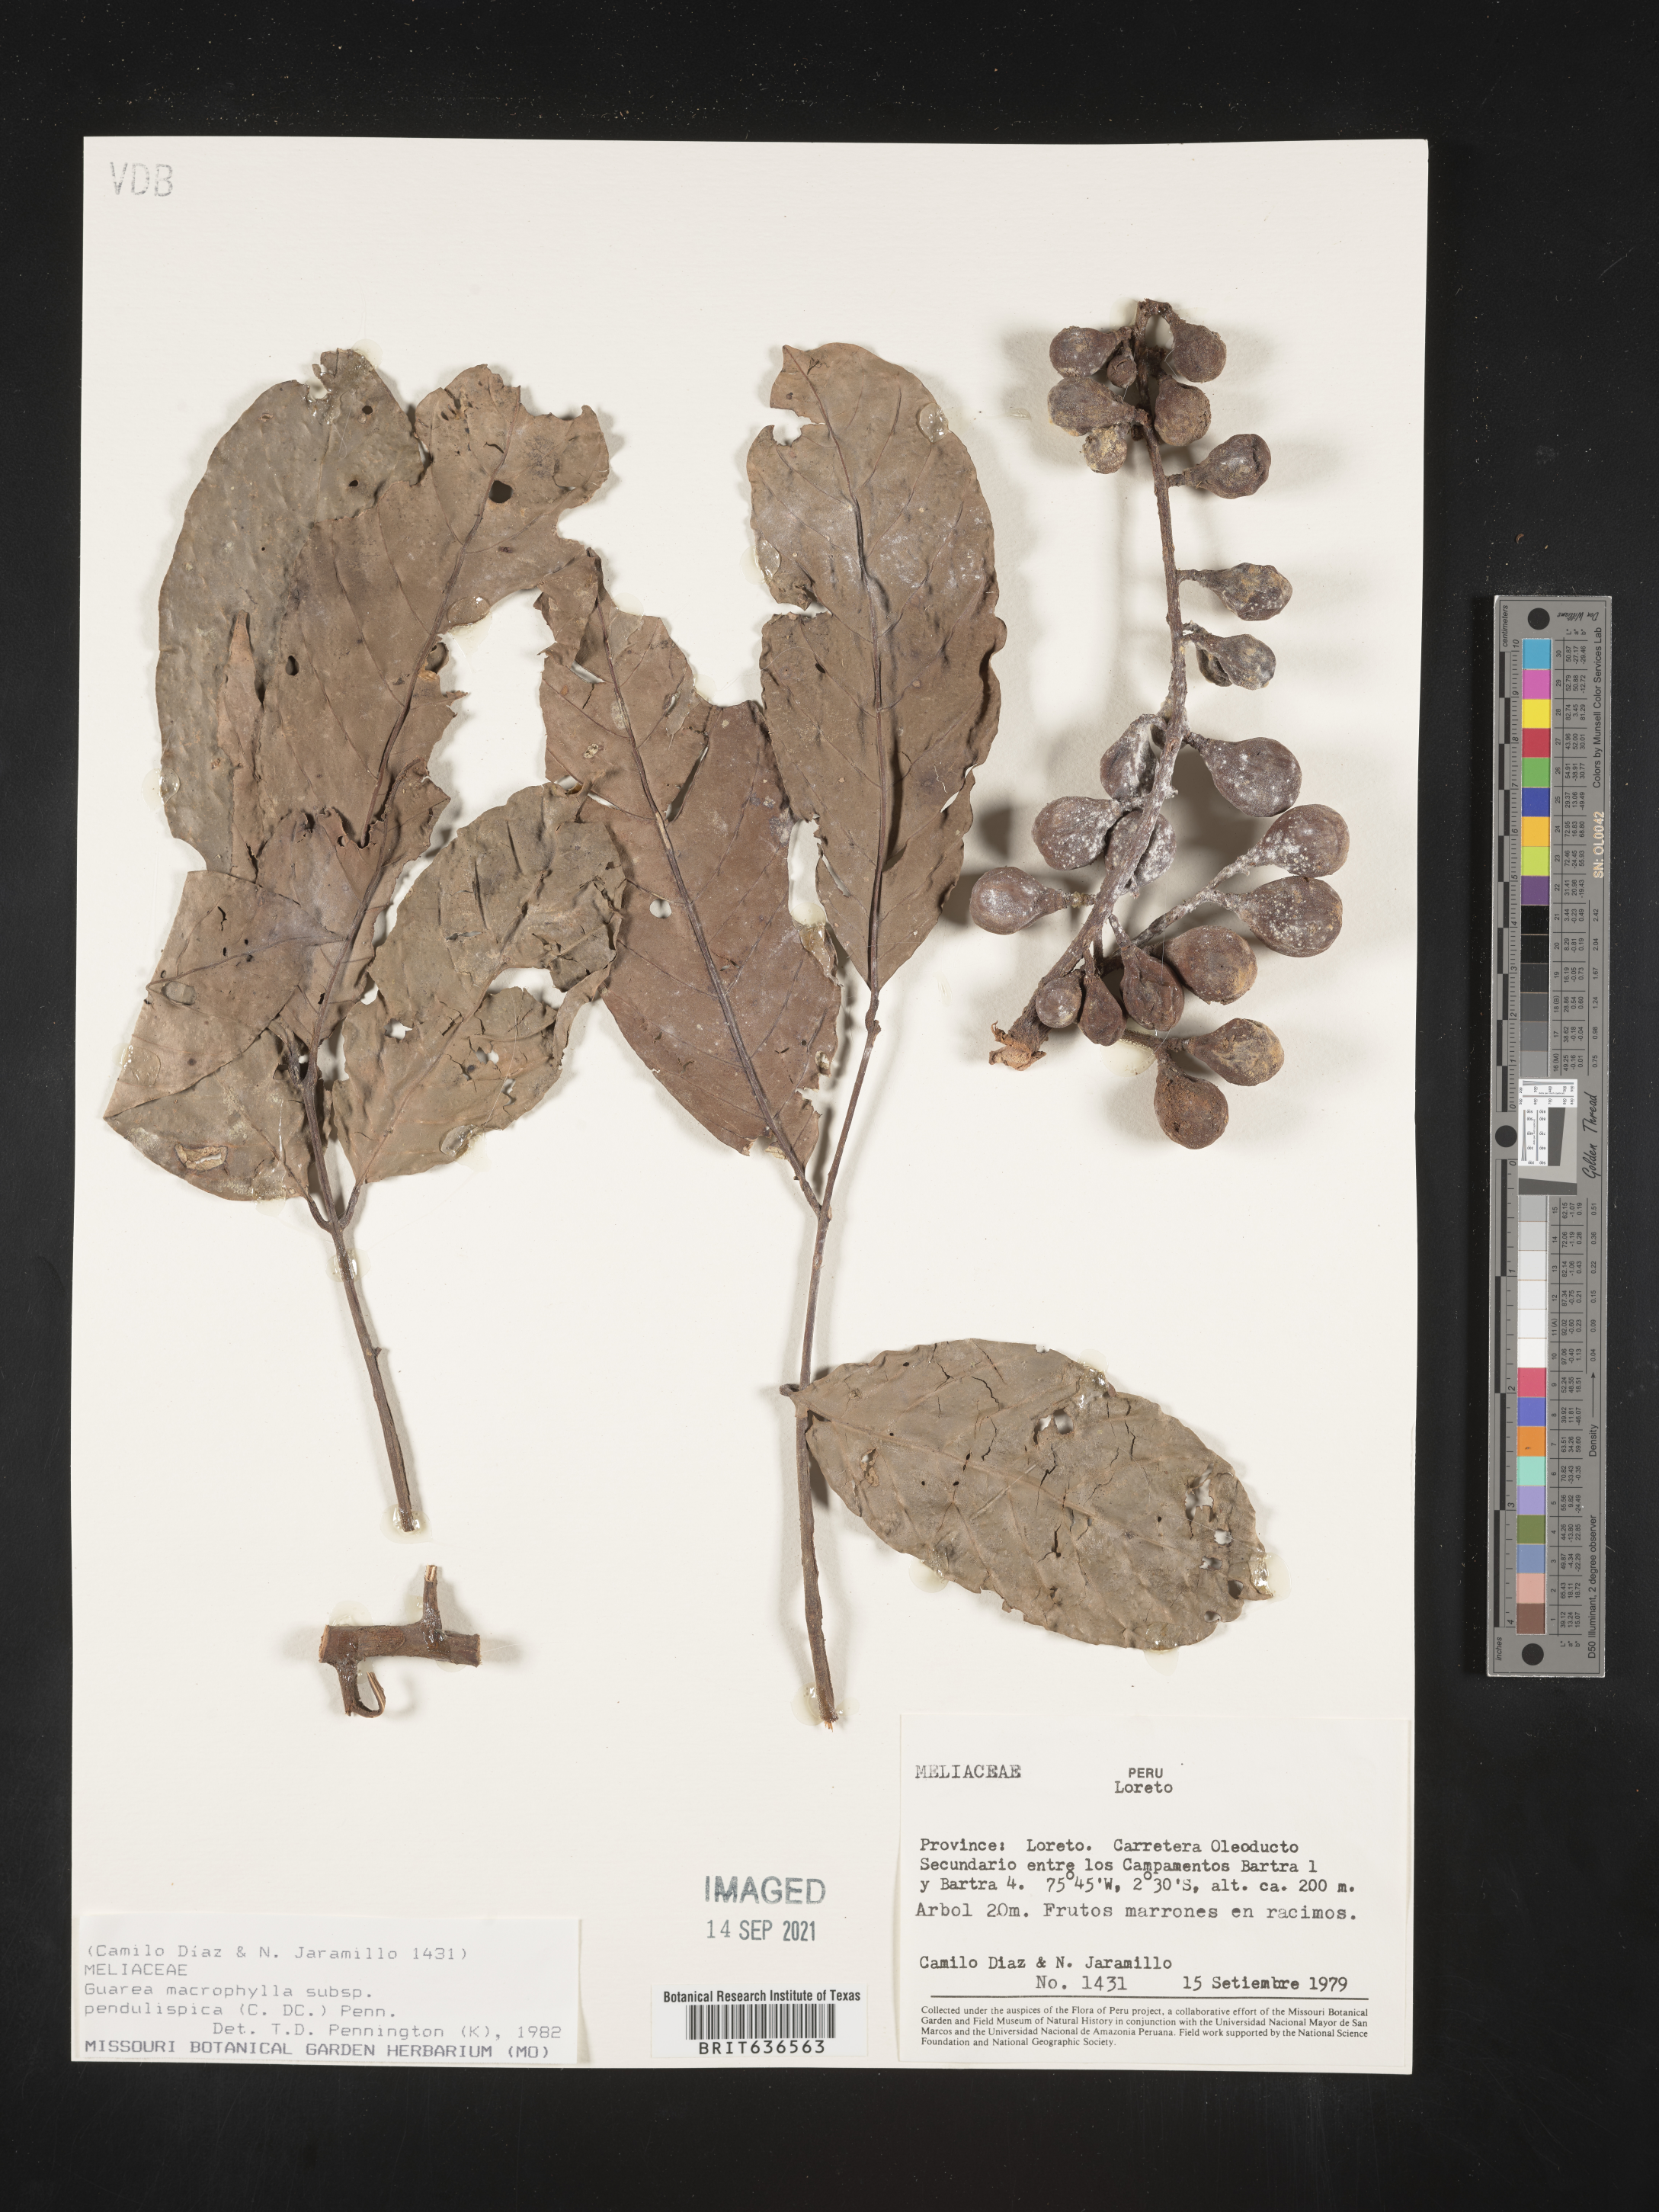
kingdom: Plantae
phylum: Tracheophyta
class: Magnoliopsida
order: Sapindales
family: Meliaceae
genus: Guarea
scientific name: Guarea
